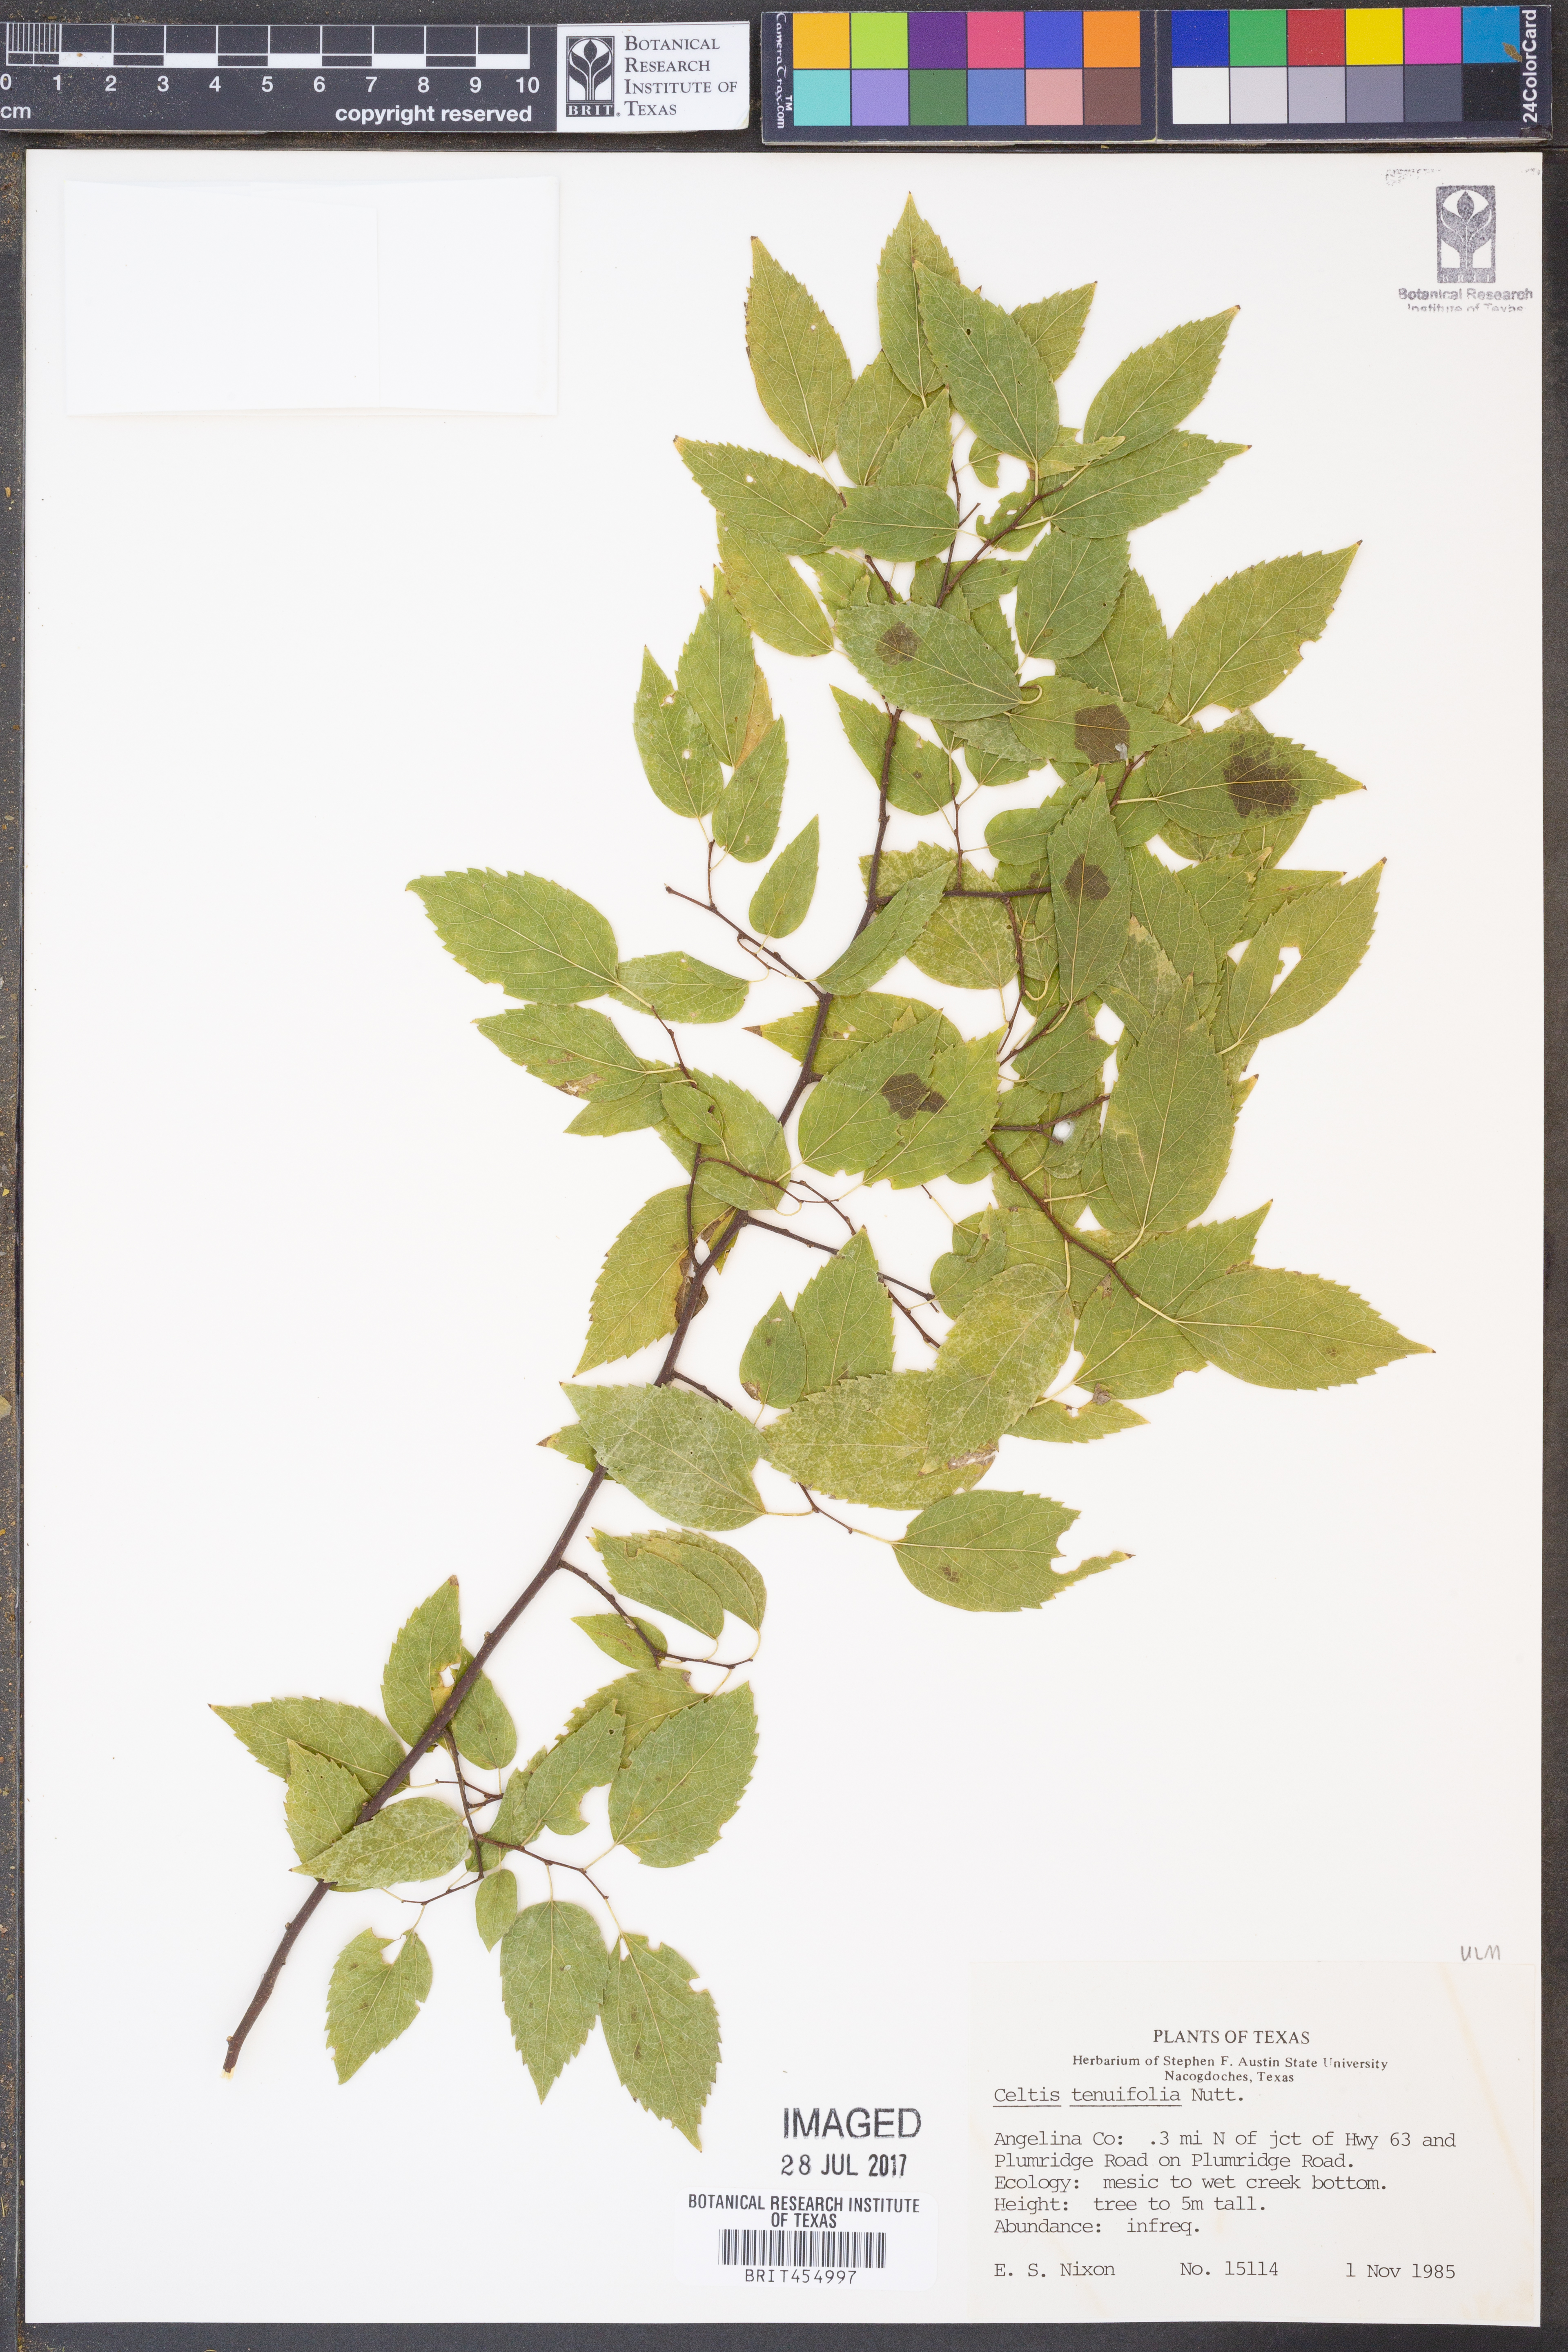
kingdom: Plantae
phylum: Tracheophyta
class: Magnoliopsida
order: Rosales
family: Cannabaceae
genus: Celtis
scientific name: Celtis tenuifolia
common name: Georgia hackberry
